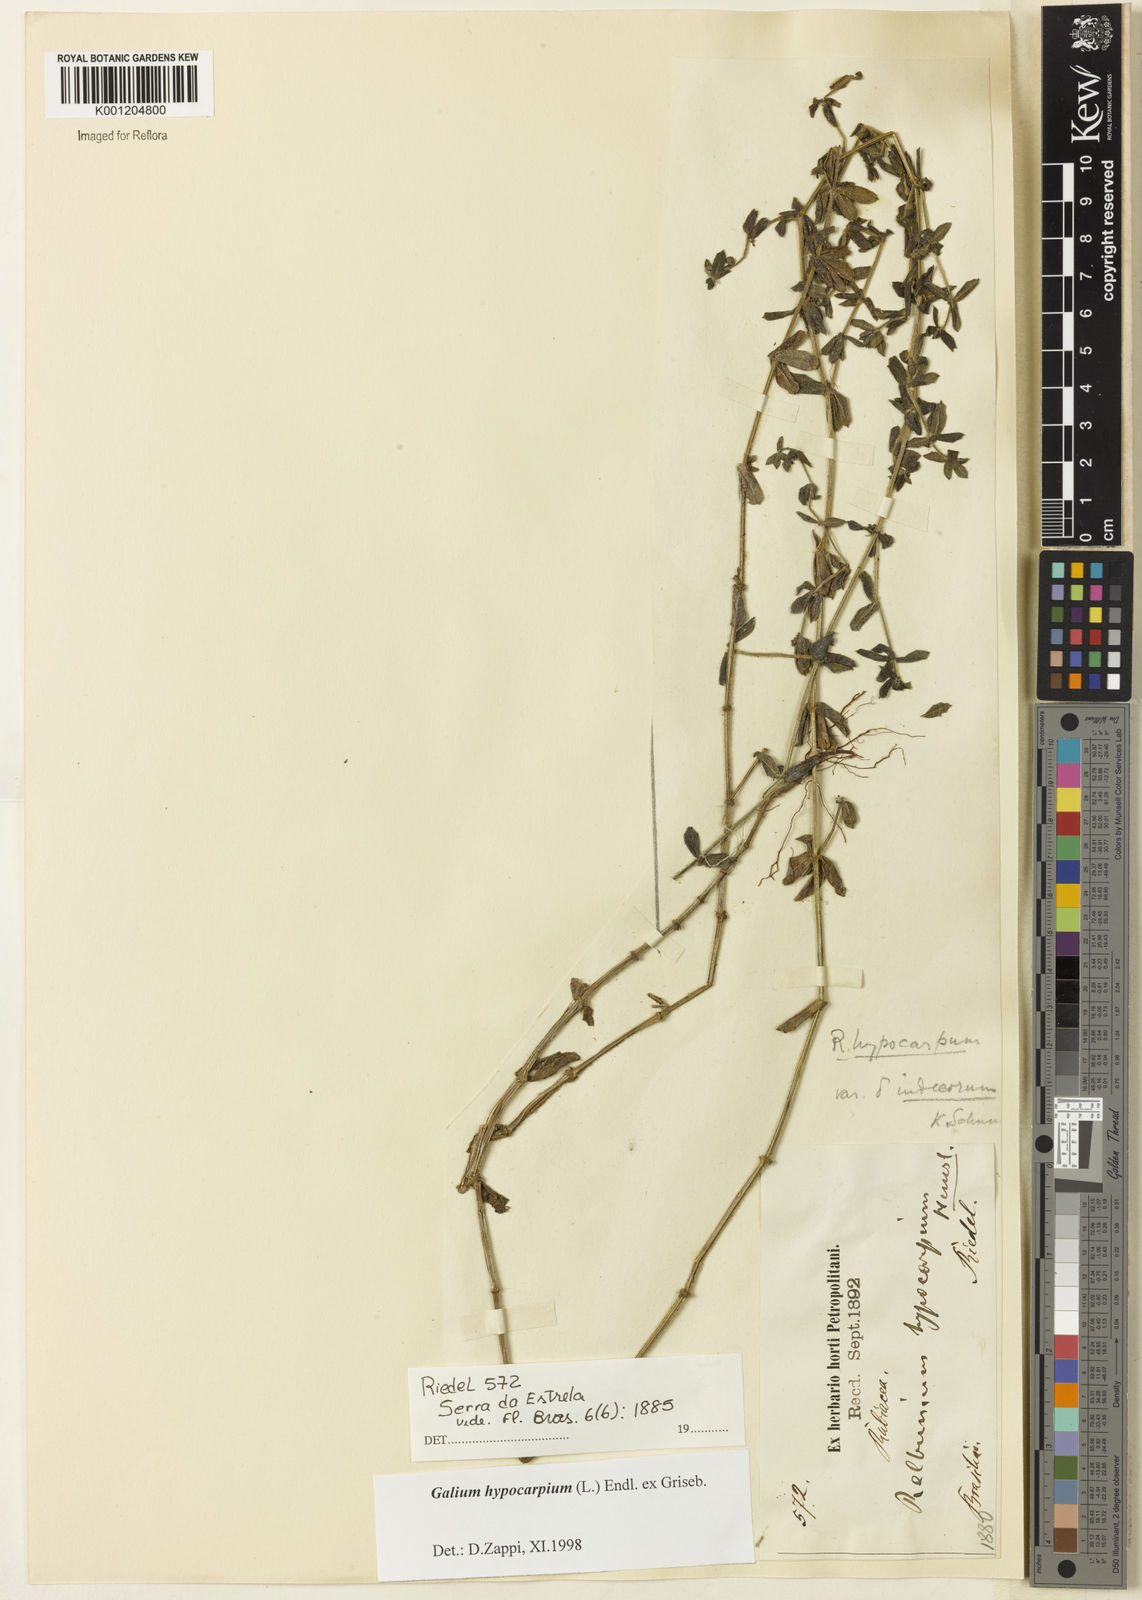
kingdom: Plantae
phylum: Tracheophyta
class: Magnoliopsida
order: Gentianales
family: Rubiaceae
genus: Galium
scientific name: Galium hypocarpium
